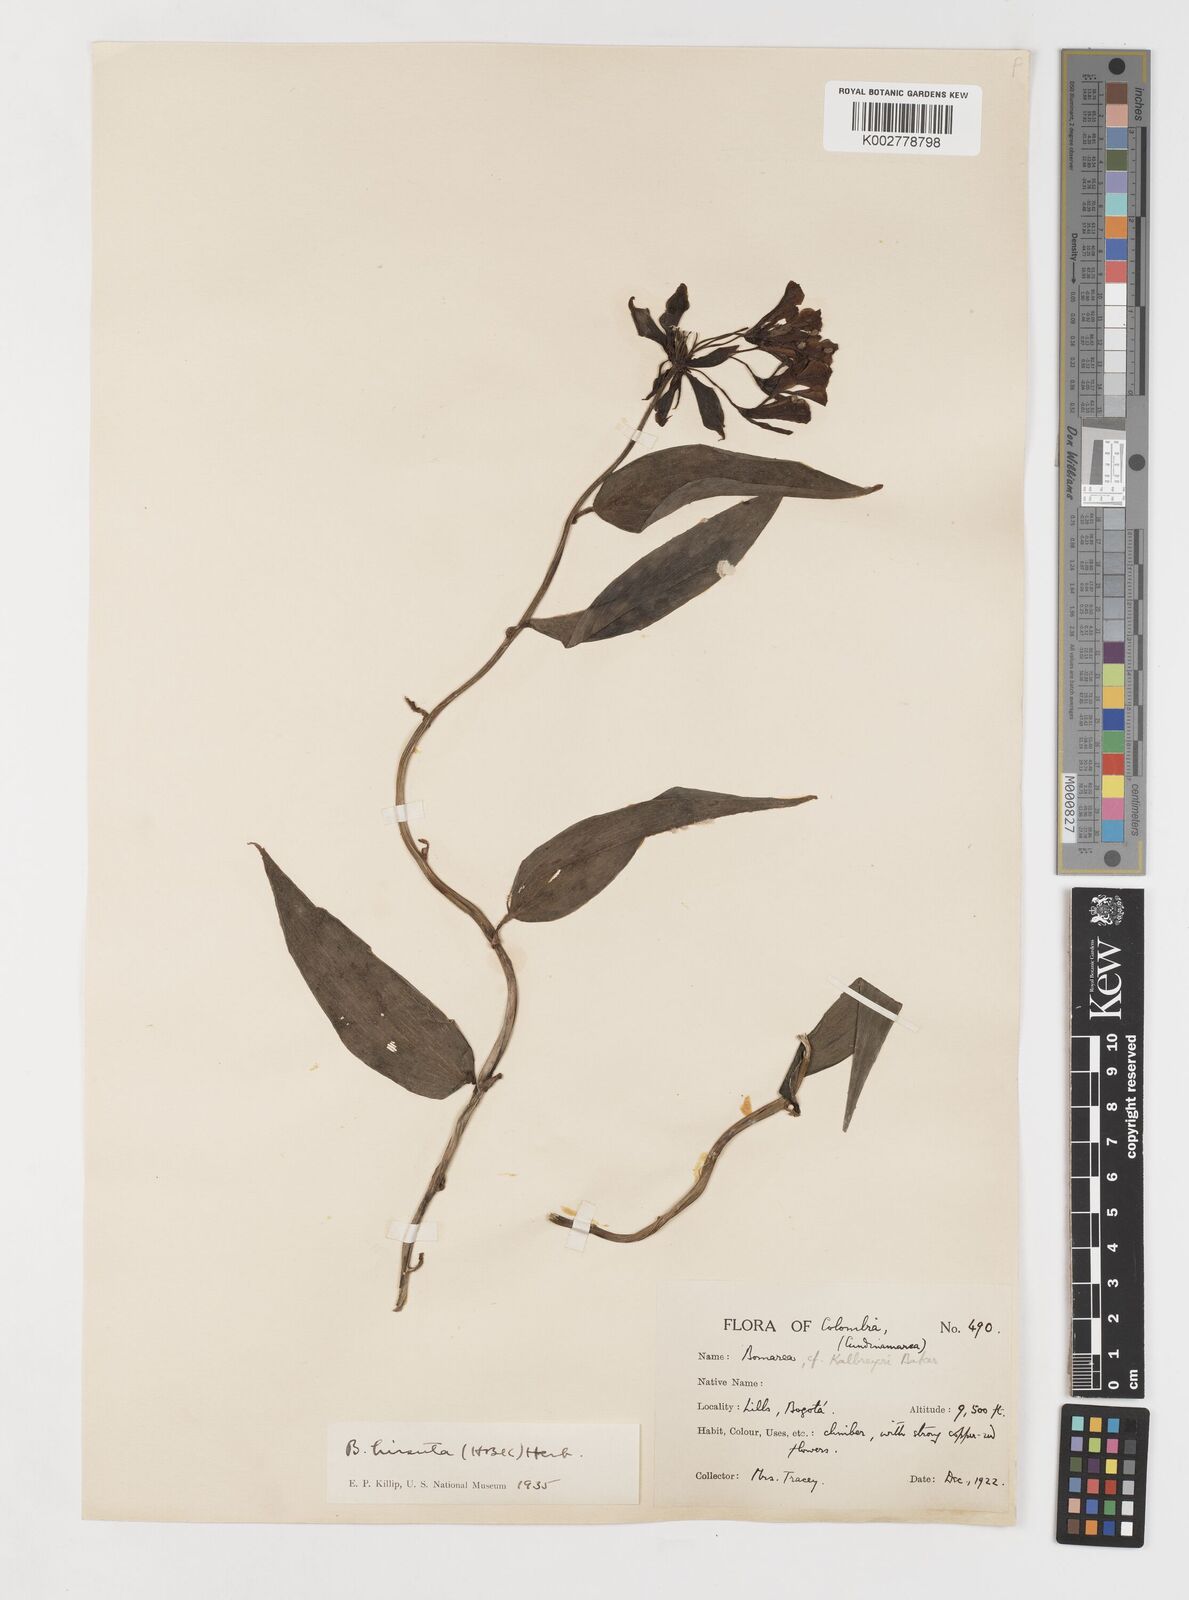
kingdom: Plantae
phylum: Tracheophyta
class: Liliopsida
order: Liliales
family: Alstroemeriaceae
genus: Bomarea
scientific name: Bomarea hirsuta
